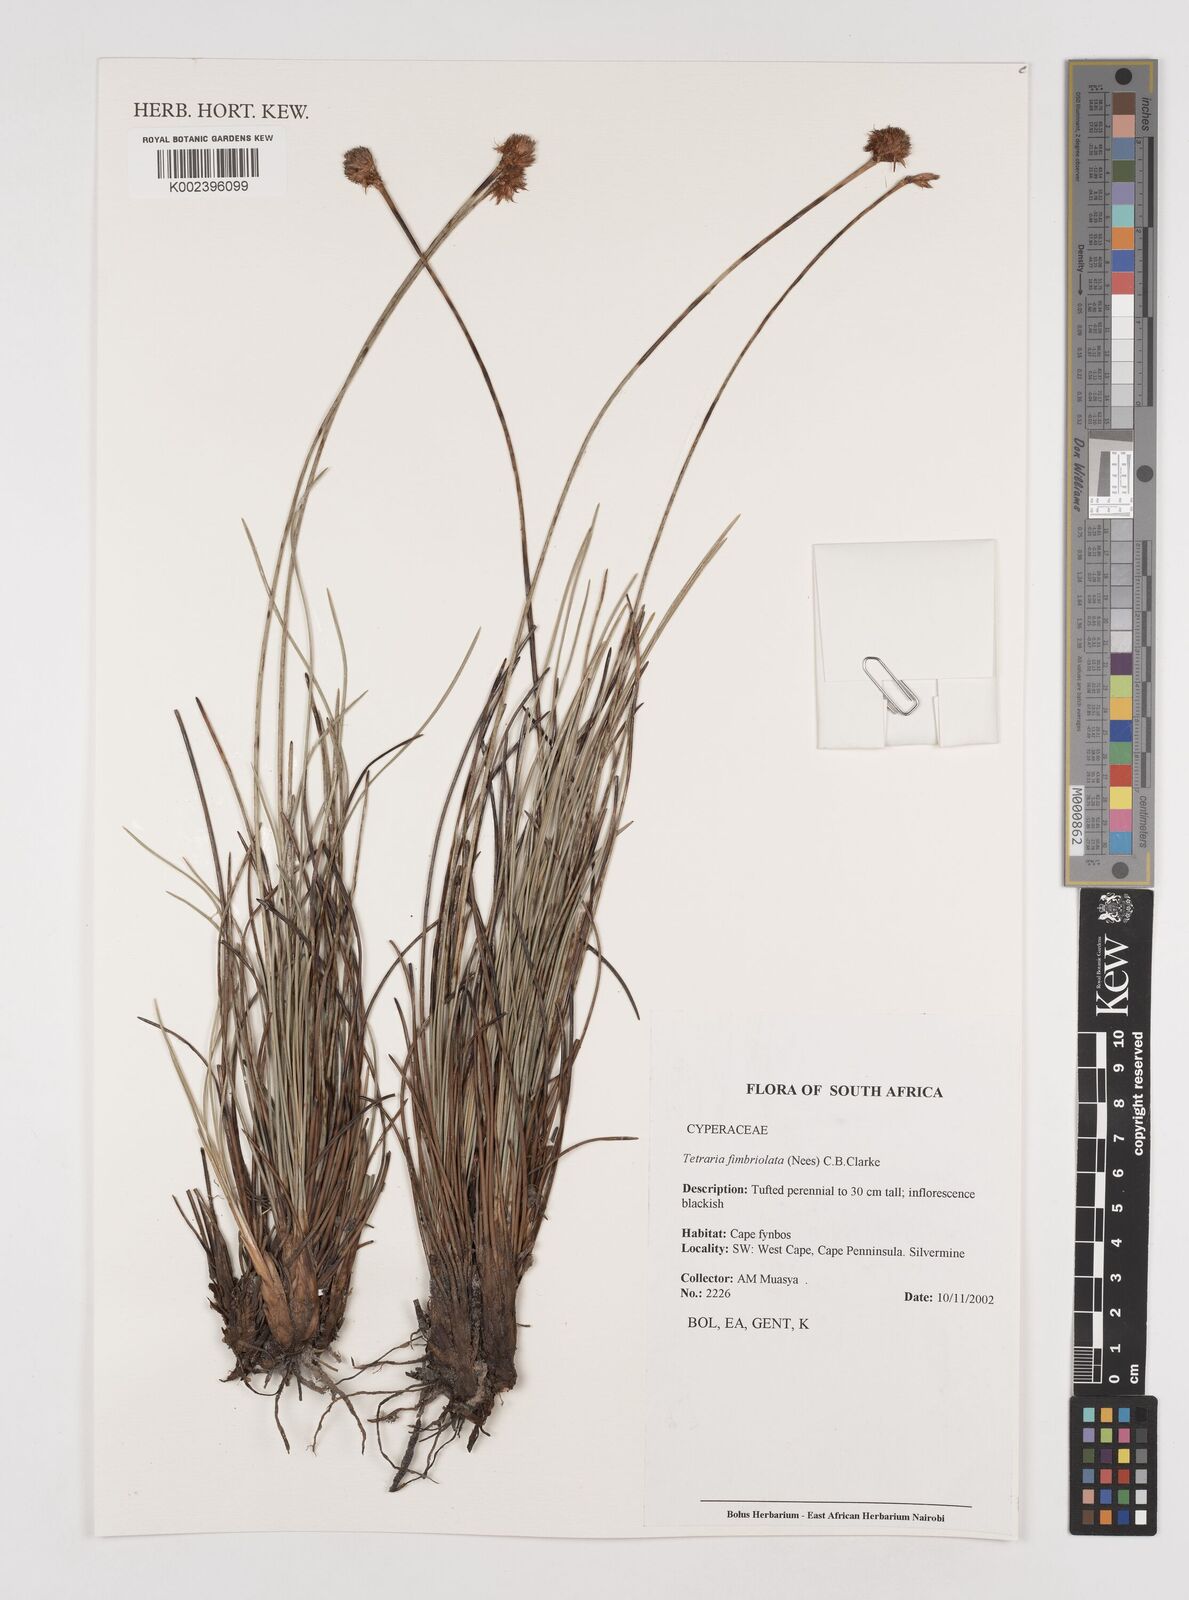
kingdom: Plantae
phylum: Tracheophyta
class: Liliopsida
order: Poales
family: Cyperaceae
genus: Tetraria
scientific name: Tetraria fimbriolata
